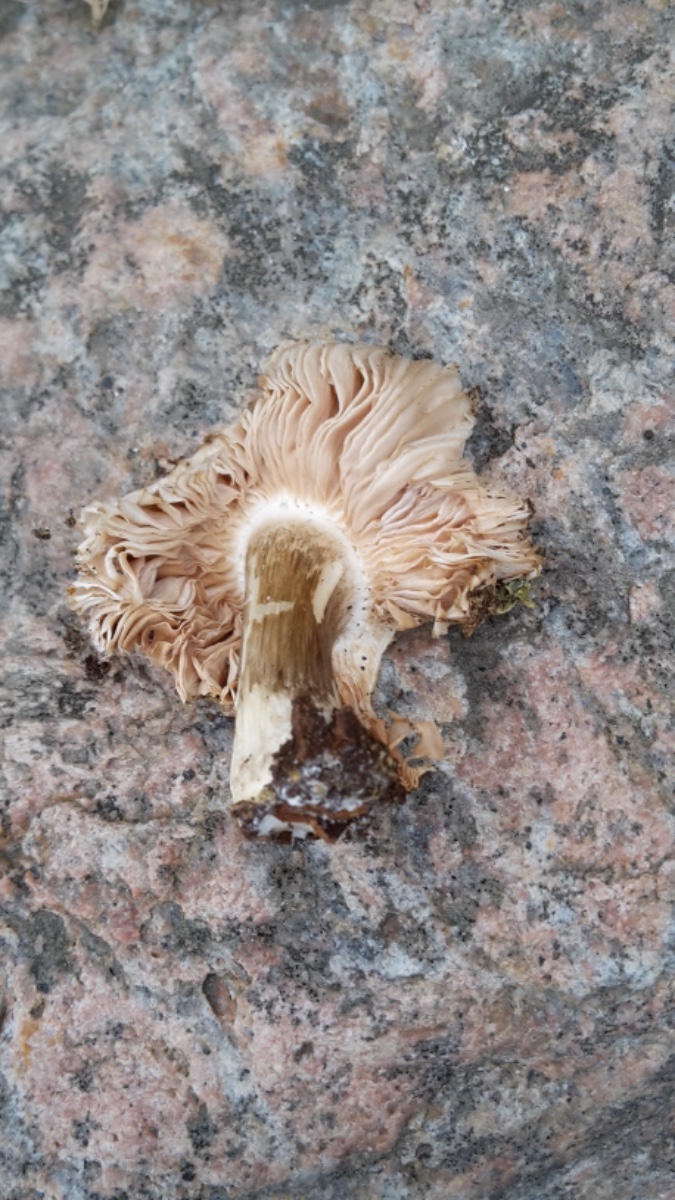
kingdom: Fungi
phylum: Basidiomycota
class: Agaricomycetes
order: Agaricales
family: Pluteaceae
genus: Pluteus
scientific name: Pluteus cervinus
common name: sodfarvet skærmhat
